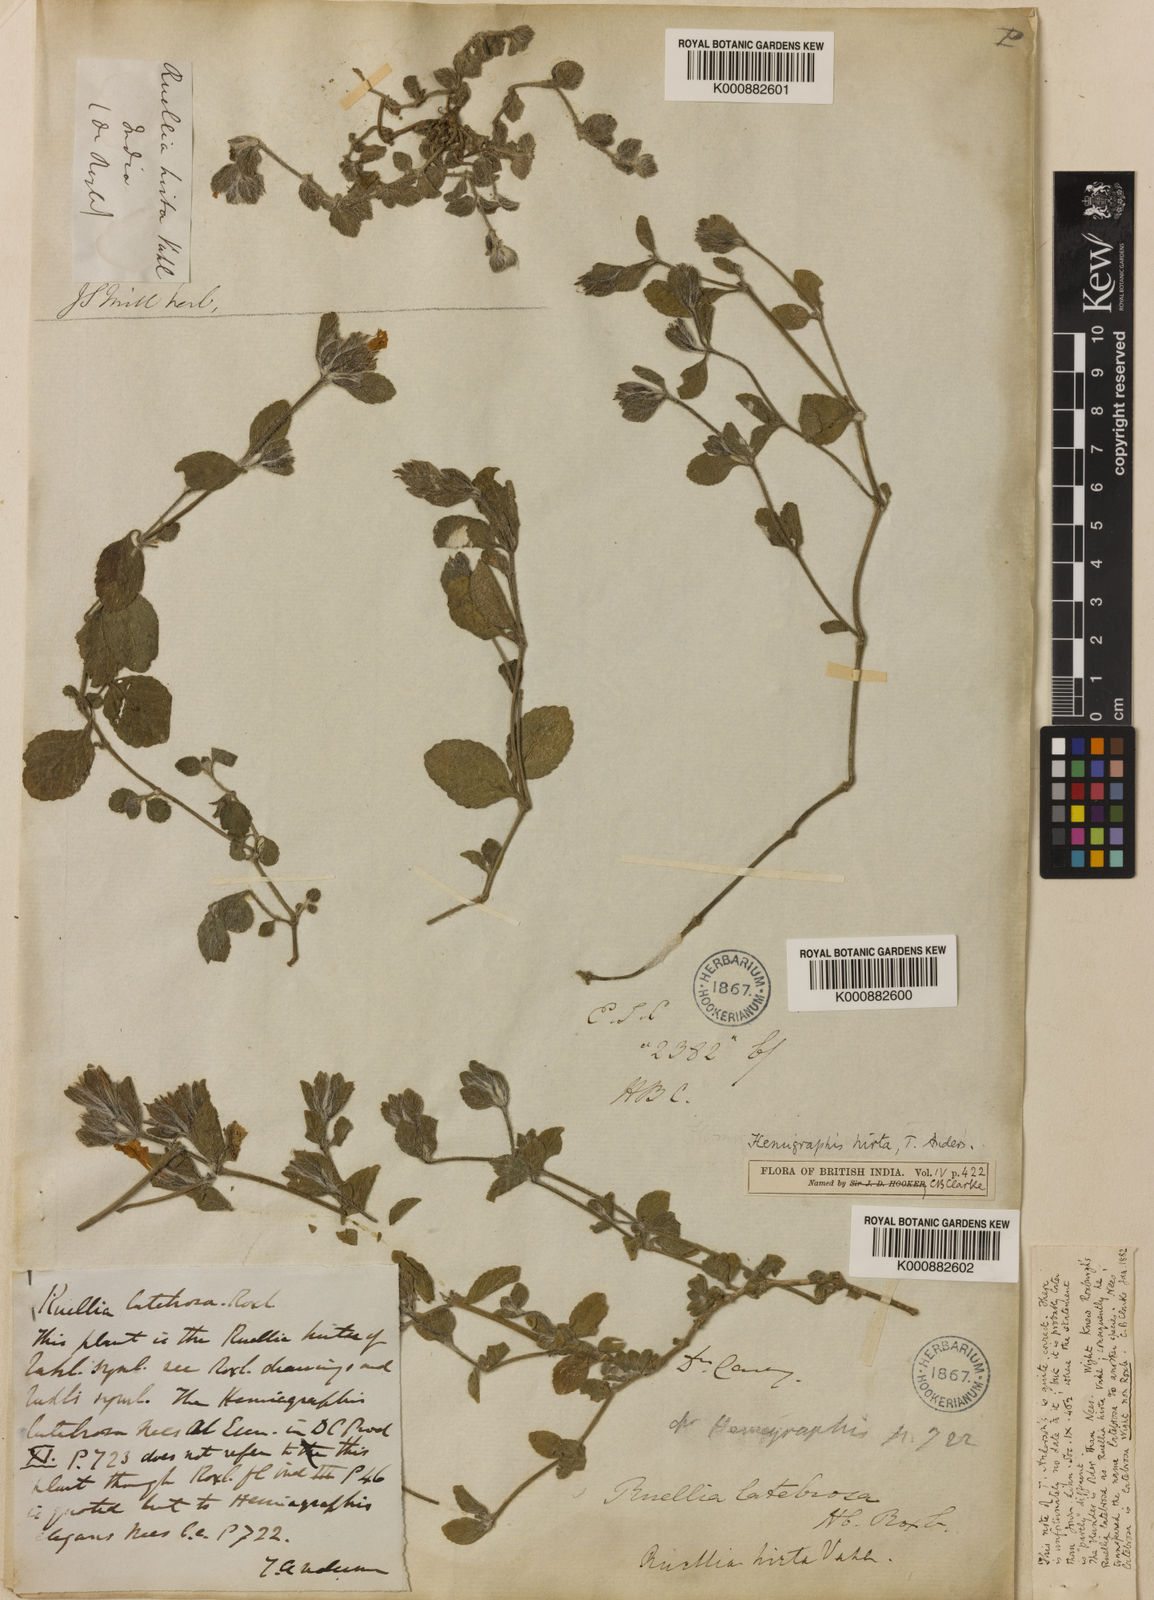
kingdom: Plantae
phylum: Tracheophyta
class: Magnoliopsida
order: Lamiales
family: Acanthaceae
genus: Strobilanthes
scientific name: Strobilanthes hirta
